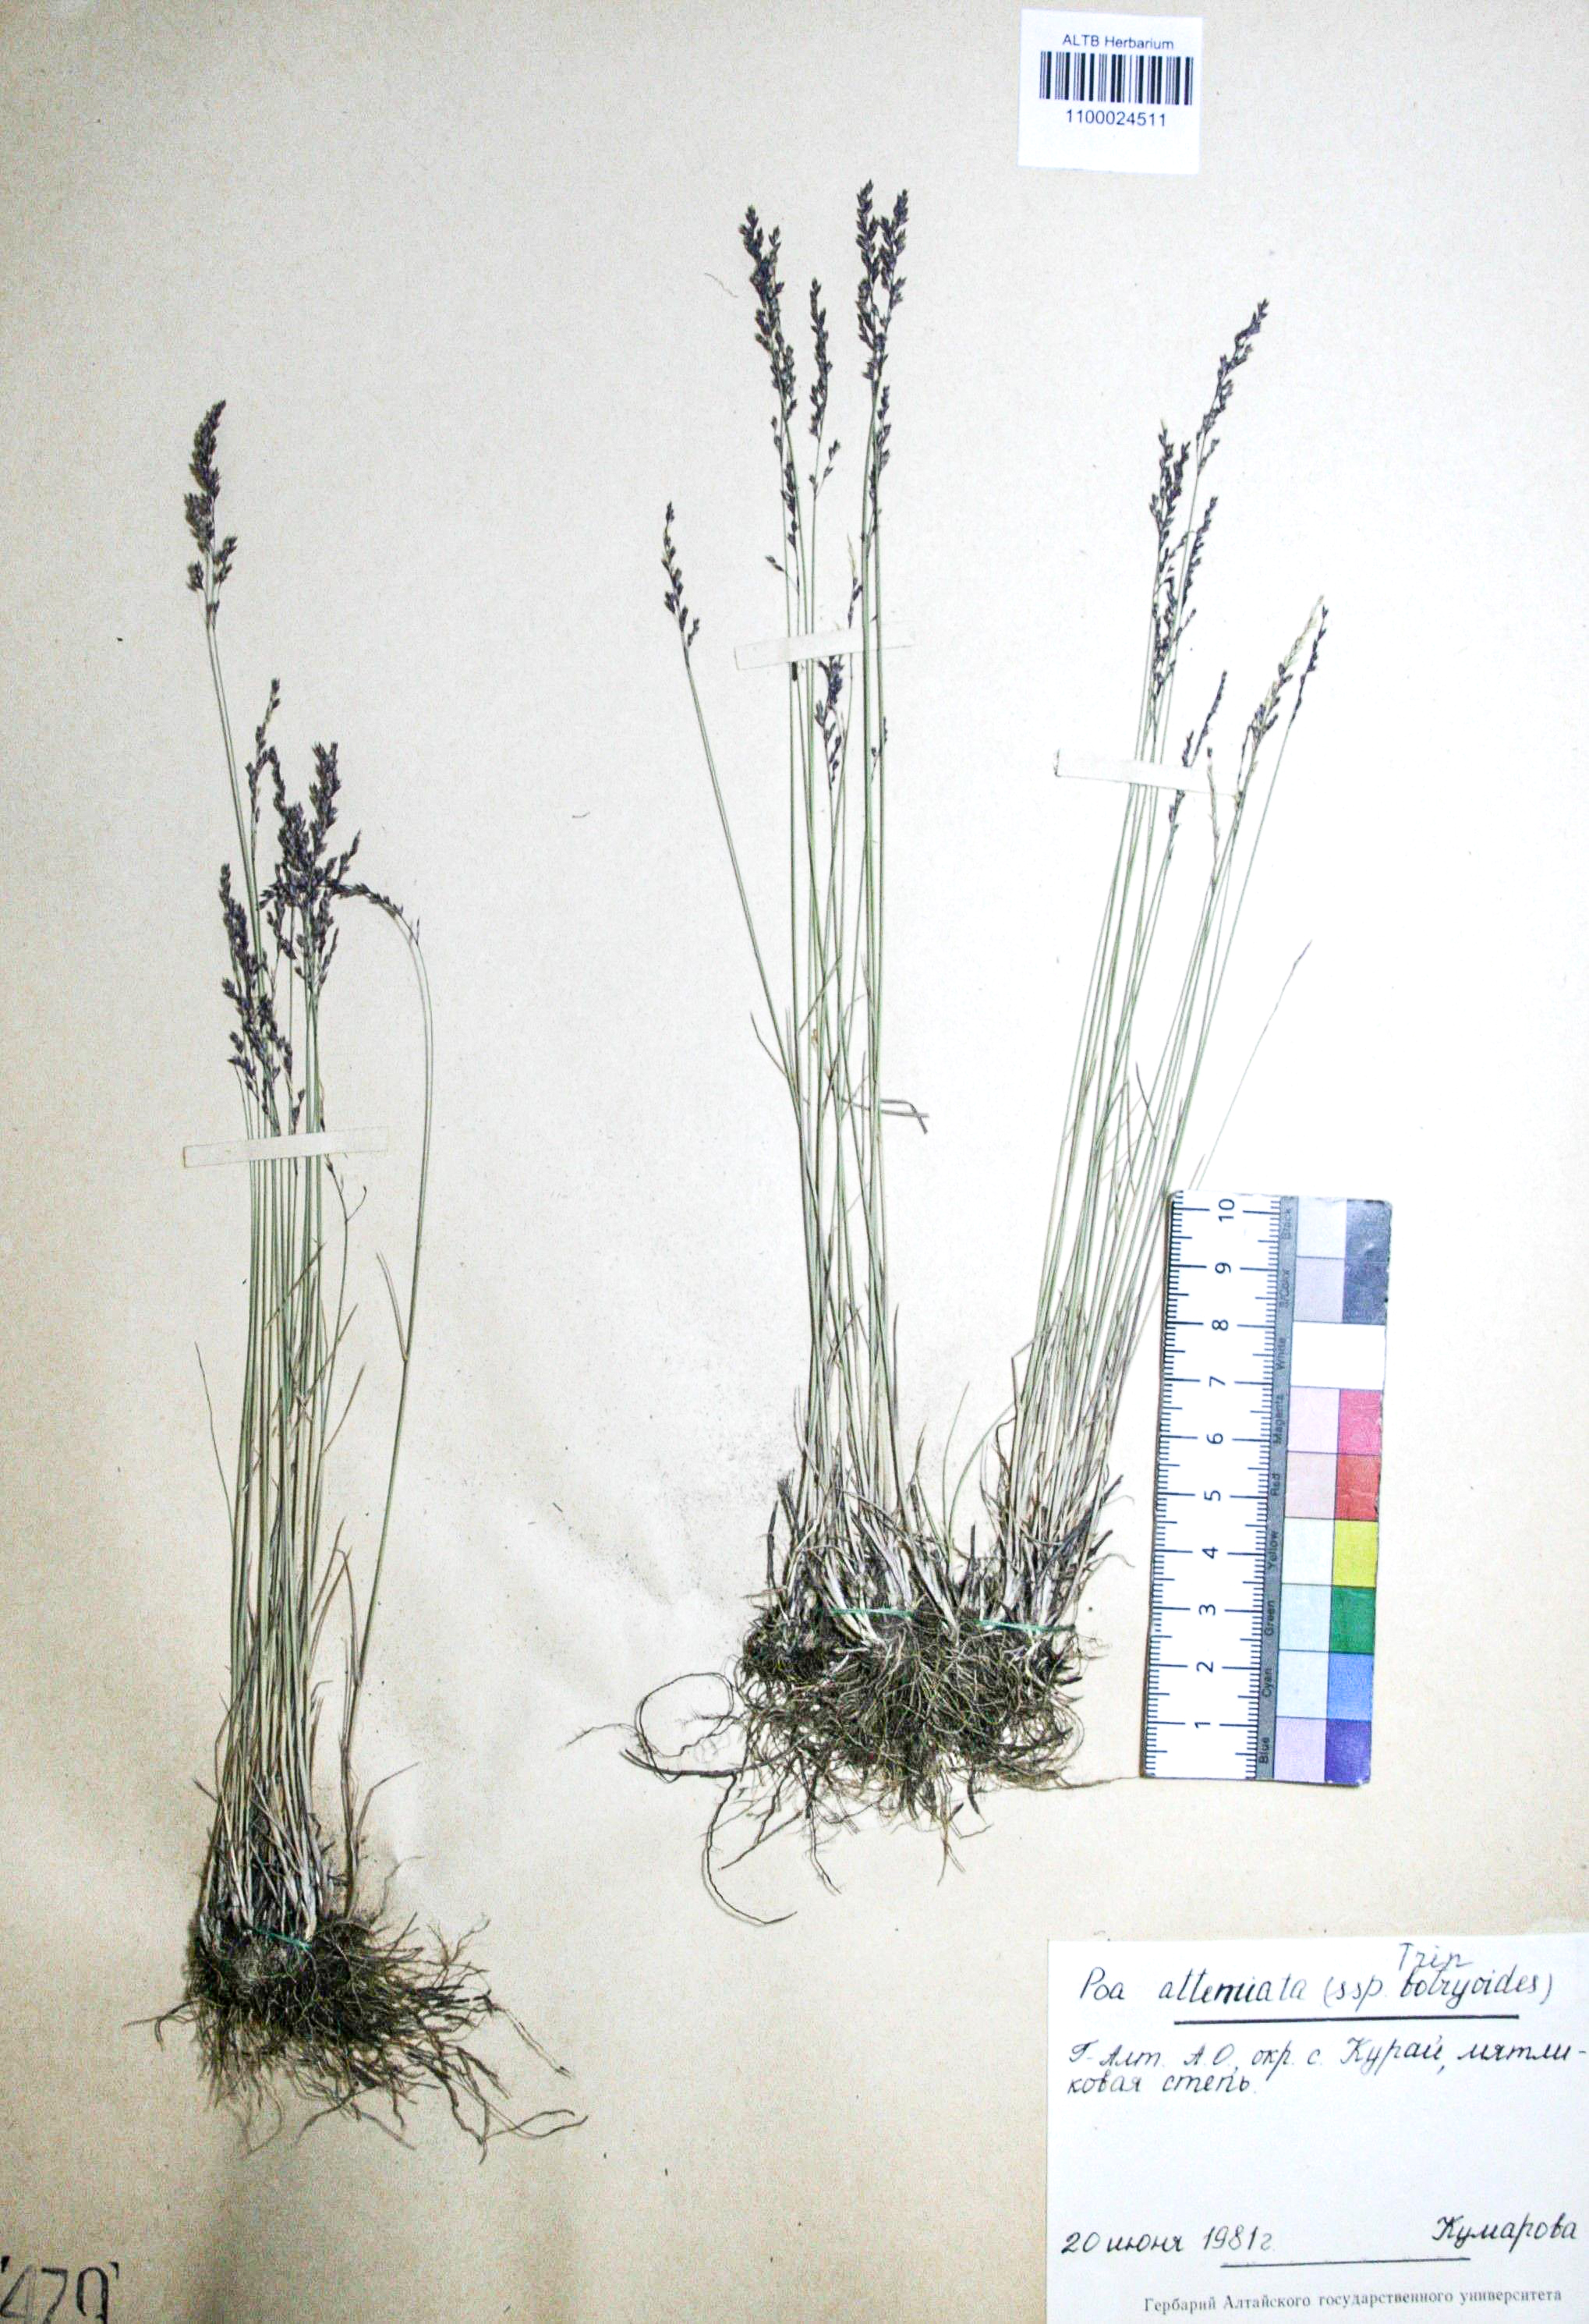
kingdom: Plantae
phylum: Tracheophyta
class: Liliopsida
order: Poales
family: Poaceae
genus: Poa
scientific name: Poa attenuata
